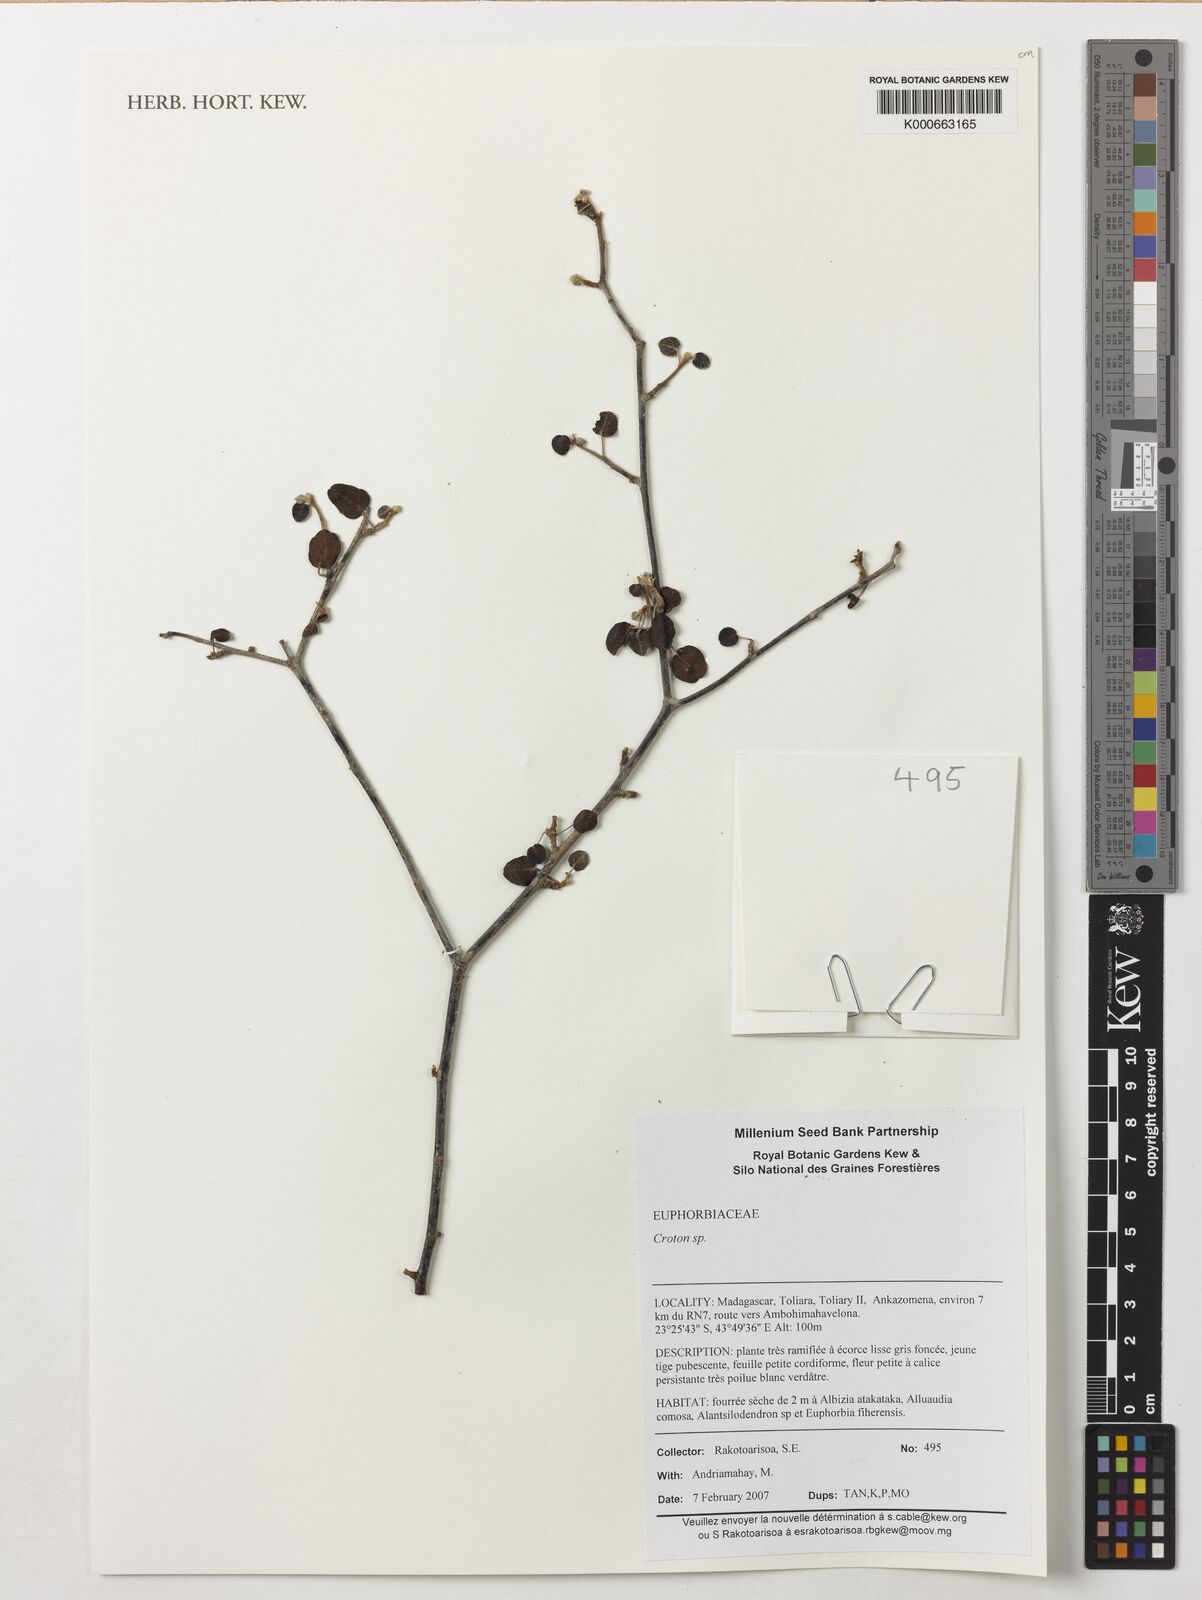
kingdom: Plantae
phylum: Tracheophyta
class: Magnoliopsida
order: Malpighiales
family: Euphorbiaceae
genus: Croton
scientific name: Croton
